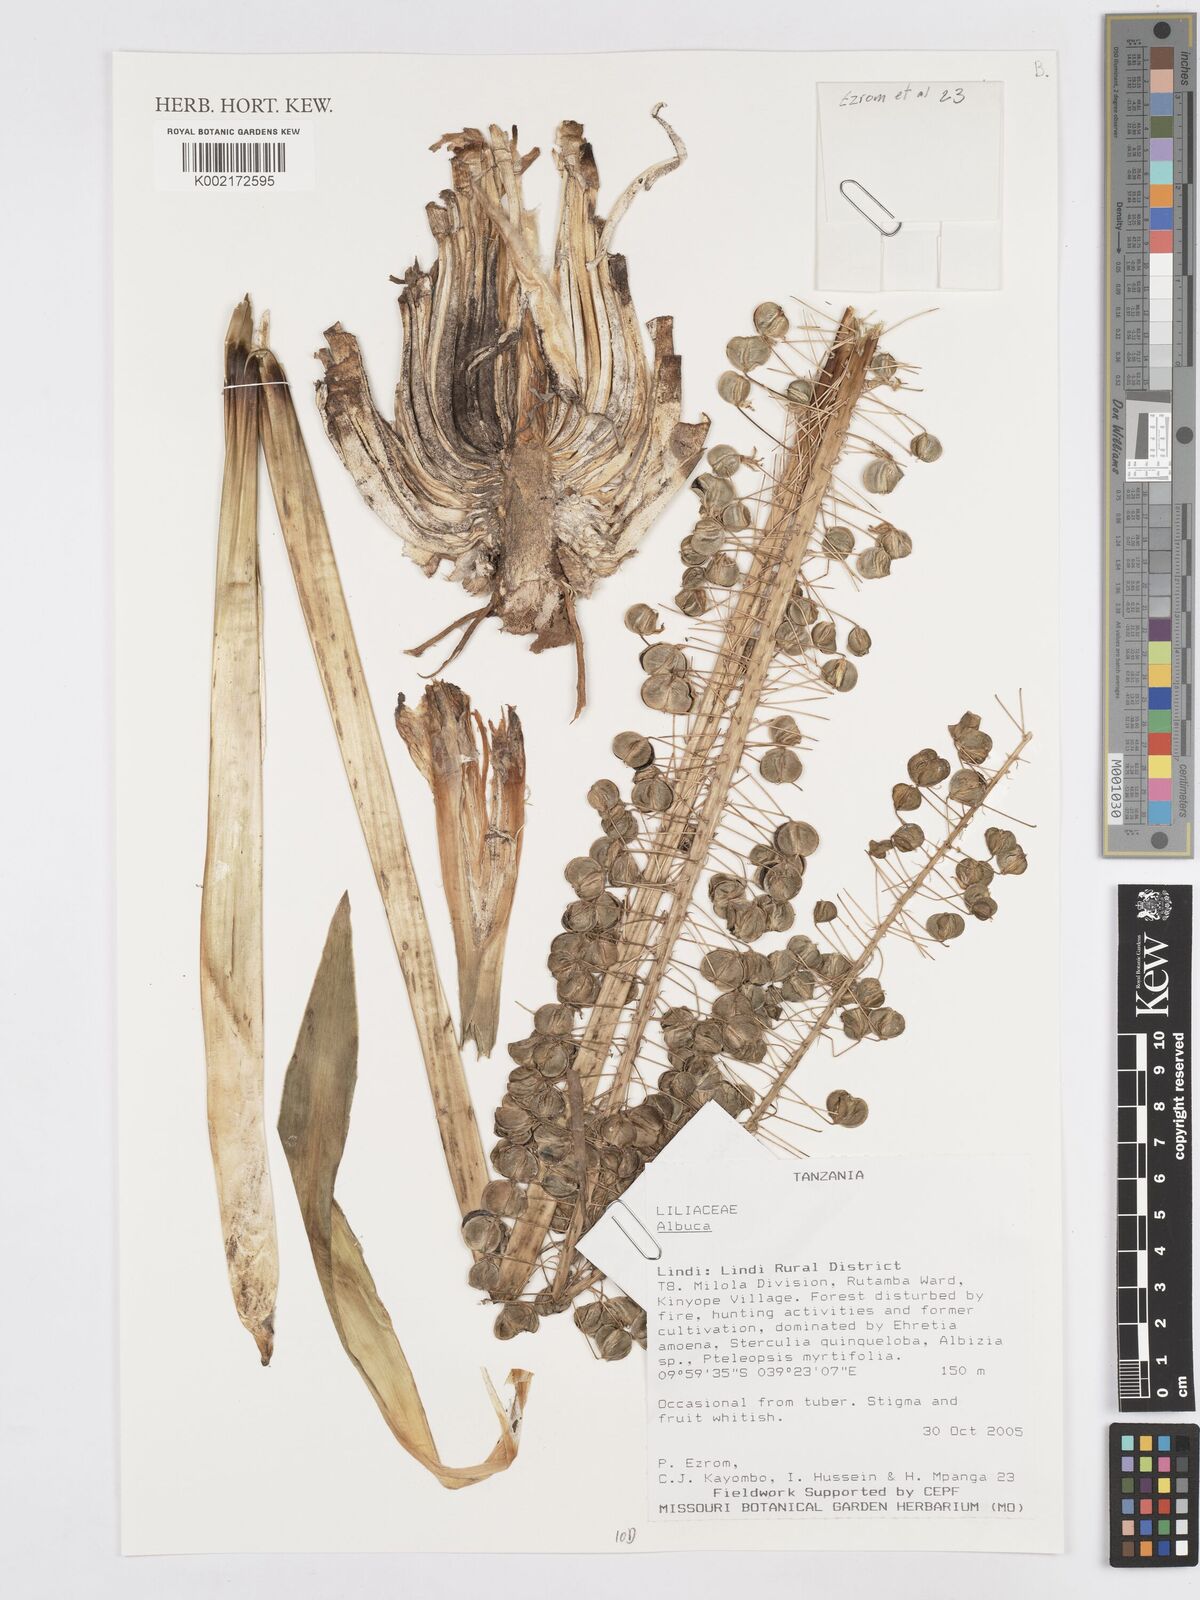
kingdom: Plantae
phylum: Tracheophyta
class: Liliopsida
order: Asparagales
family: Asparagaceae
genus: Albuca
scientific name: Albuca
